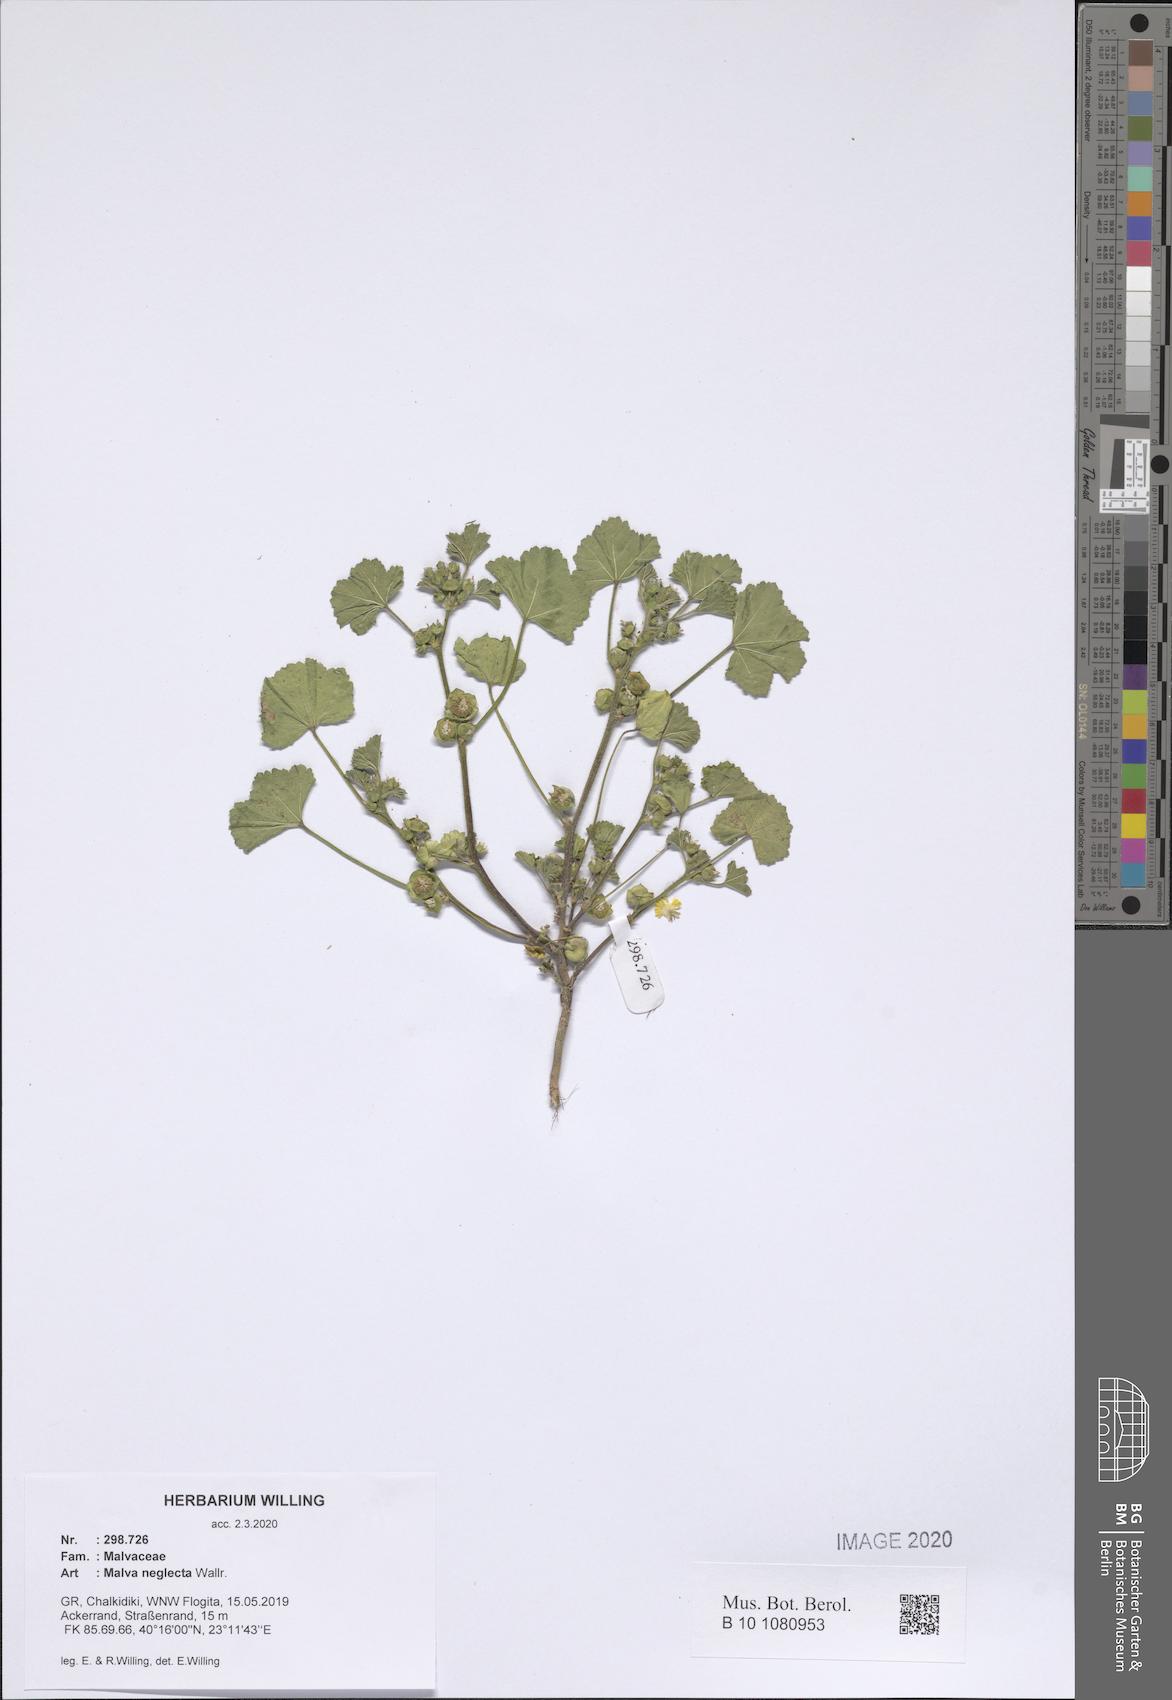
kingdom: Plantae
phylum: Tracheophyta
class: Magnoliopsida
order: Malvales
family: Malvaceae
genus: Malva
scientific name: Malva neglecta
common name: Common mallow
